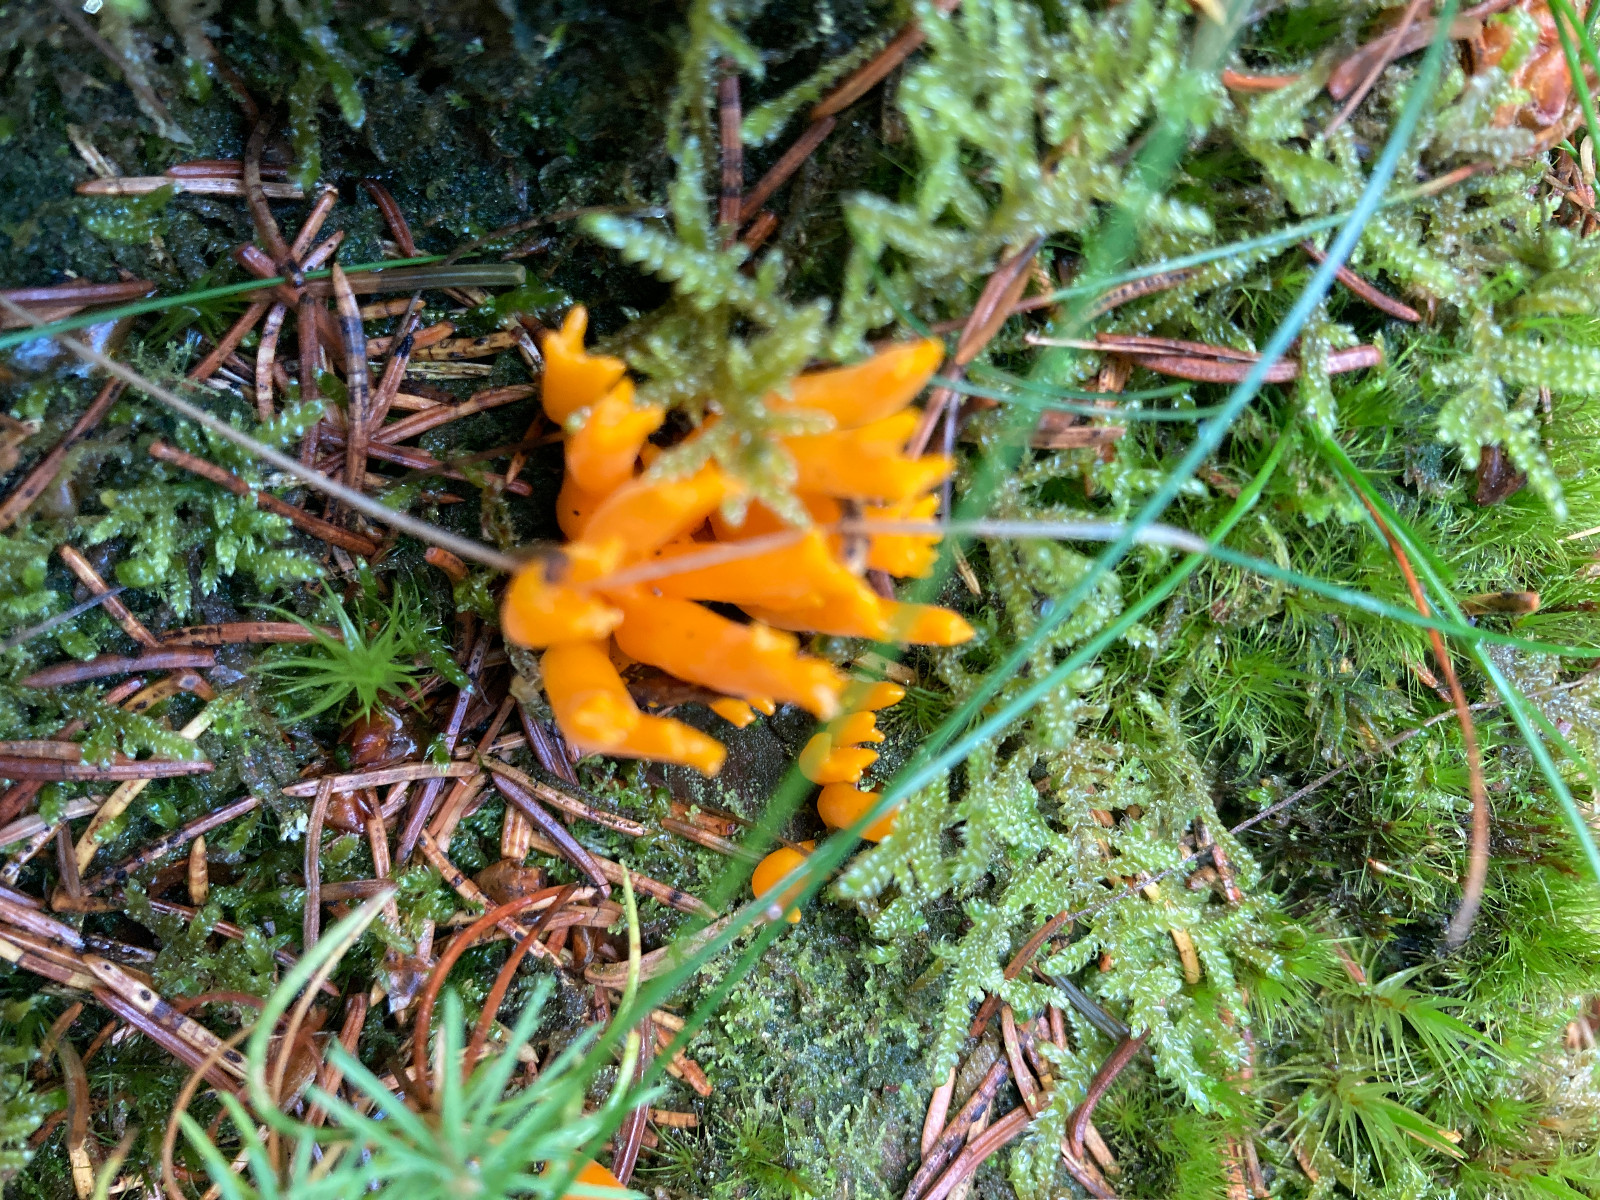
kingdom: Fungi
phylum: Basidiomycota
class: Dacrymycetes
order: Dacrymycetales
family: Dacrymycetaceae
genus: Calocera
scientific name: Calocera viscosa
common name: almindelig guldgaffel
